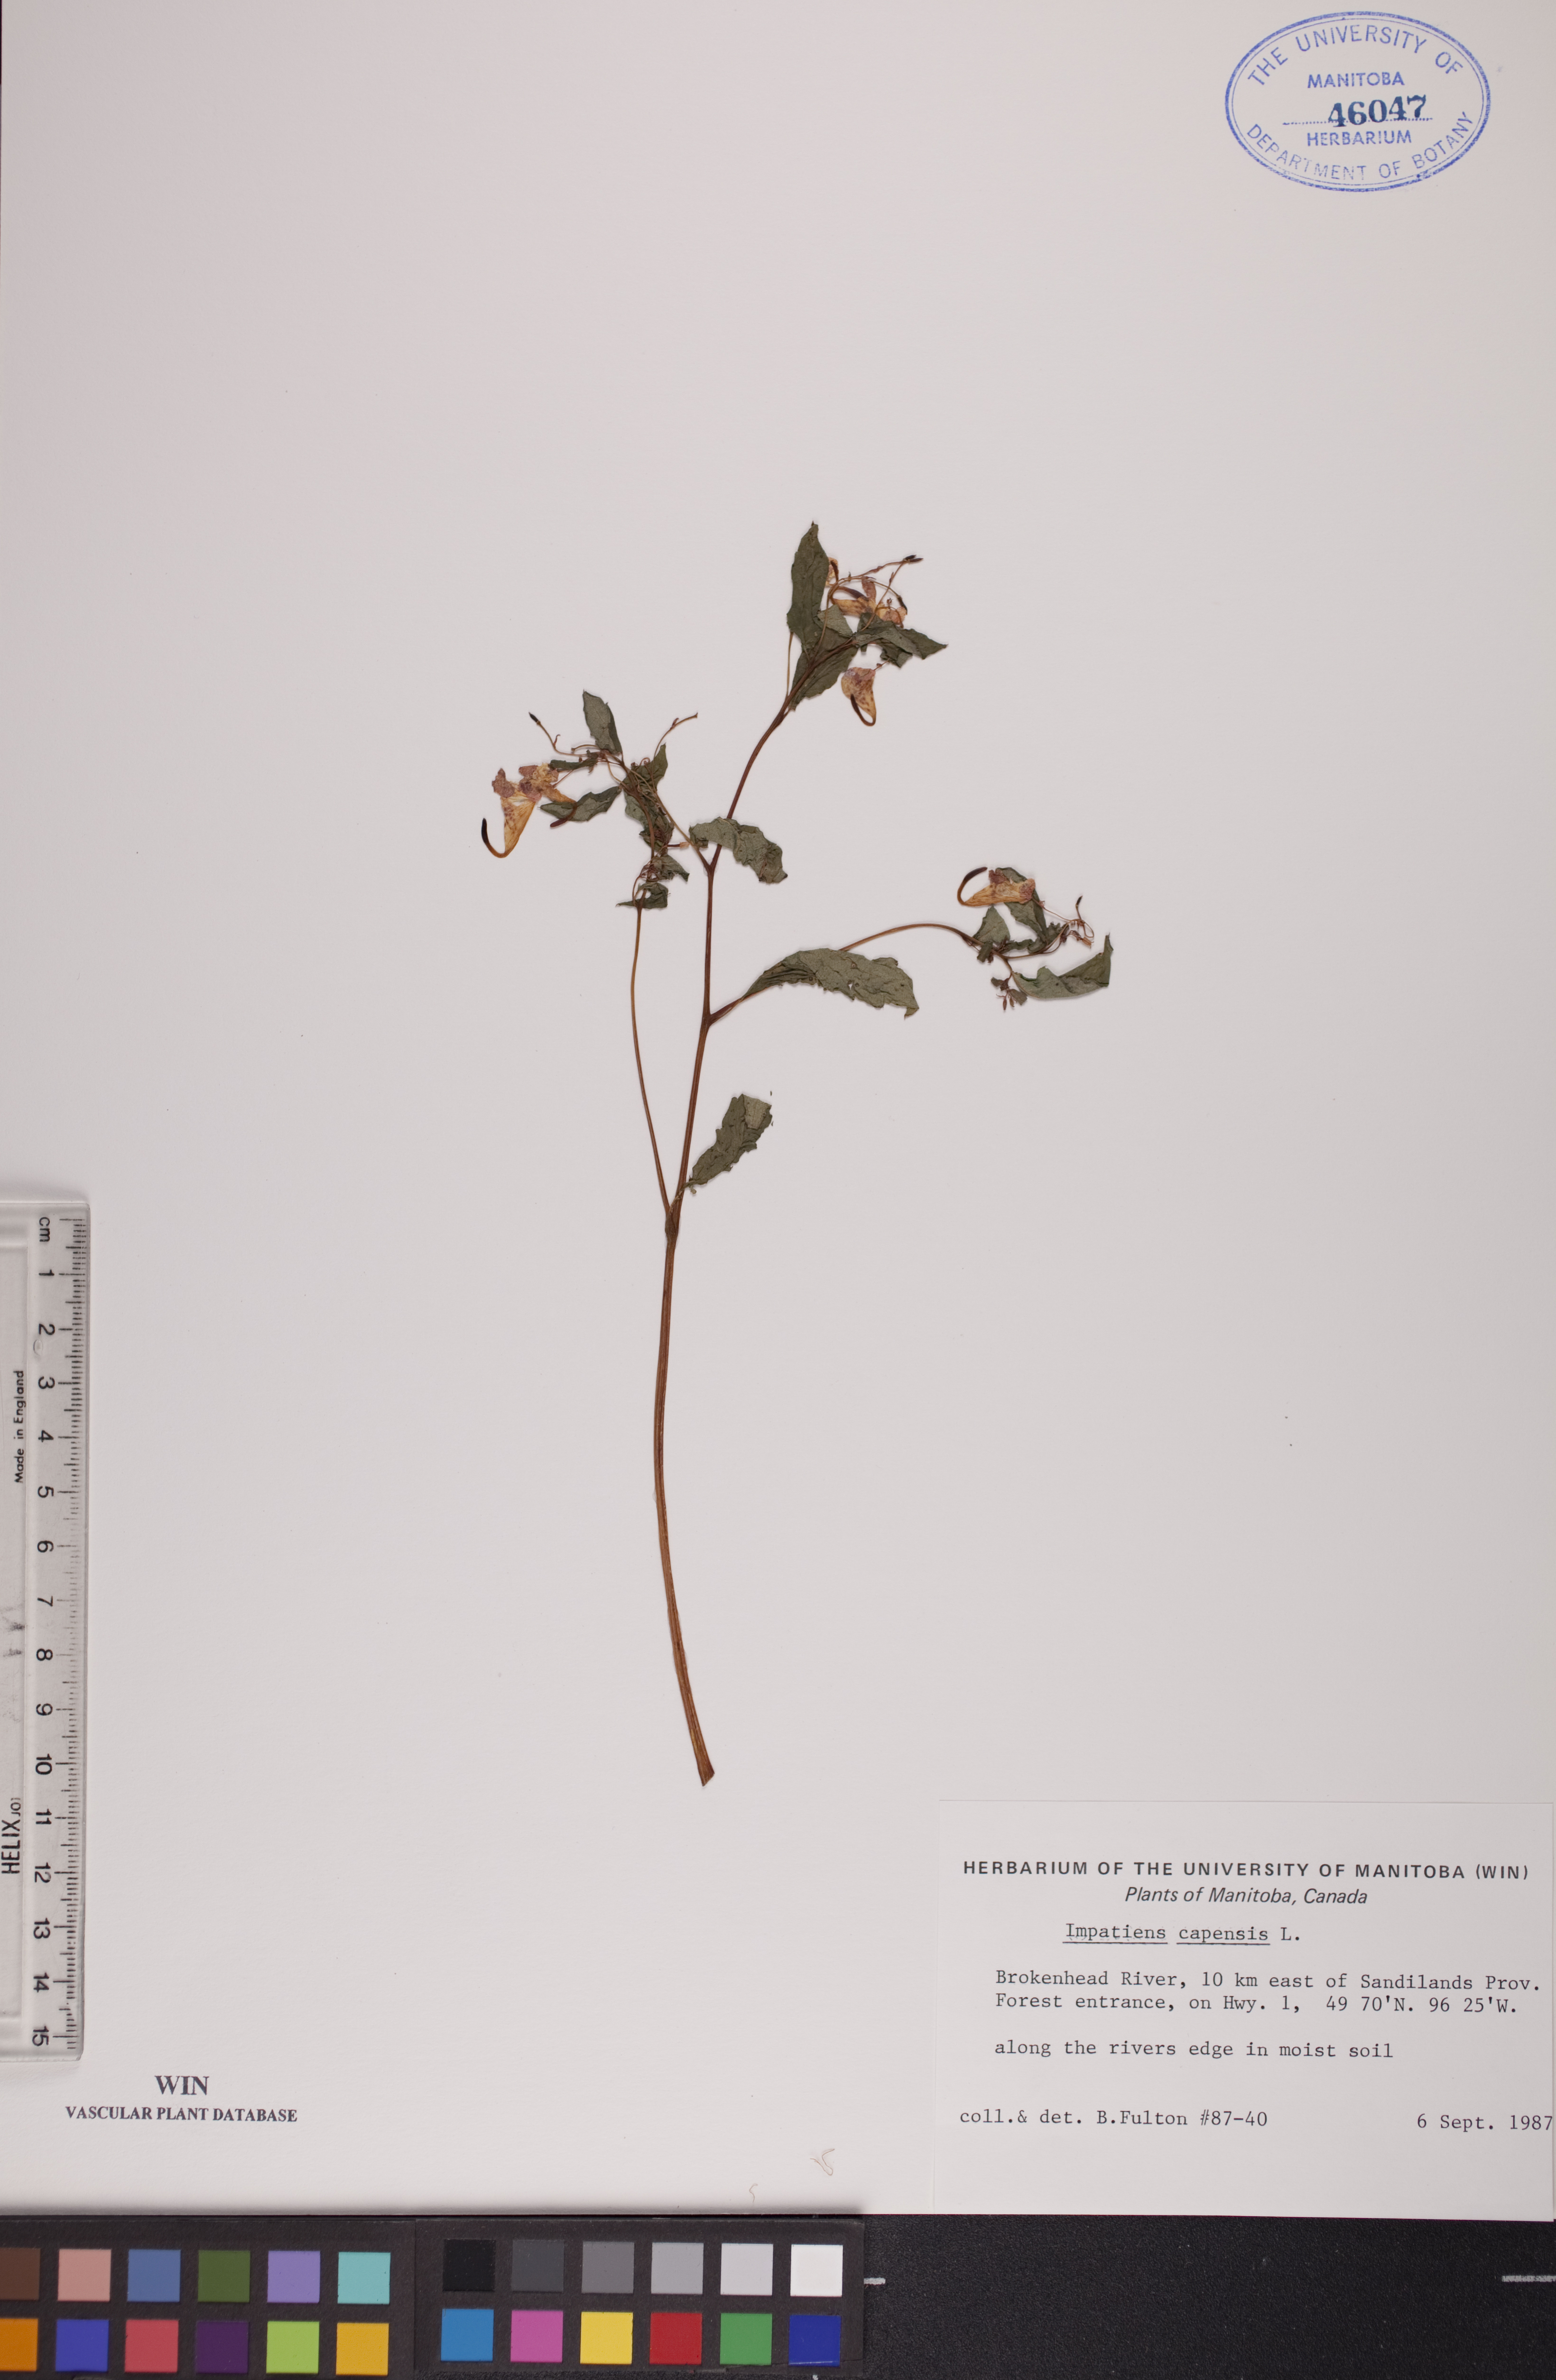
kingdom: Plantae
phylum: Tracheophyta
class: Magnoliopsida
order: Ericales
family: Balsaminaceae
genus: Impatiens
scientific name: Impatiens capensis
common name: Orange balsam
